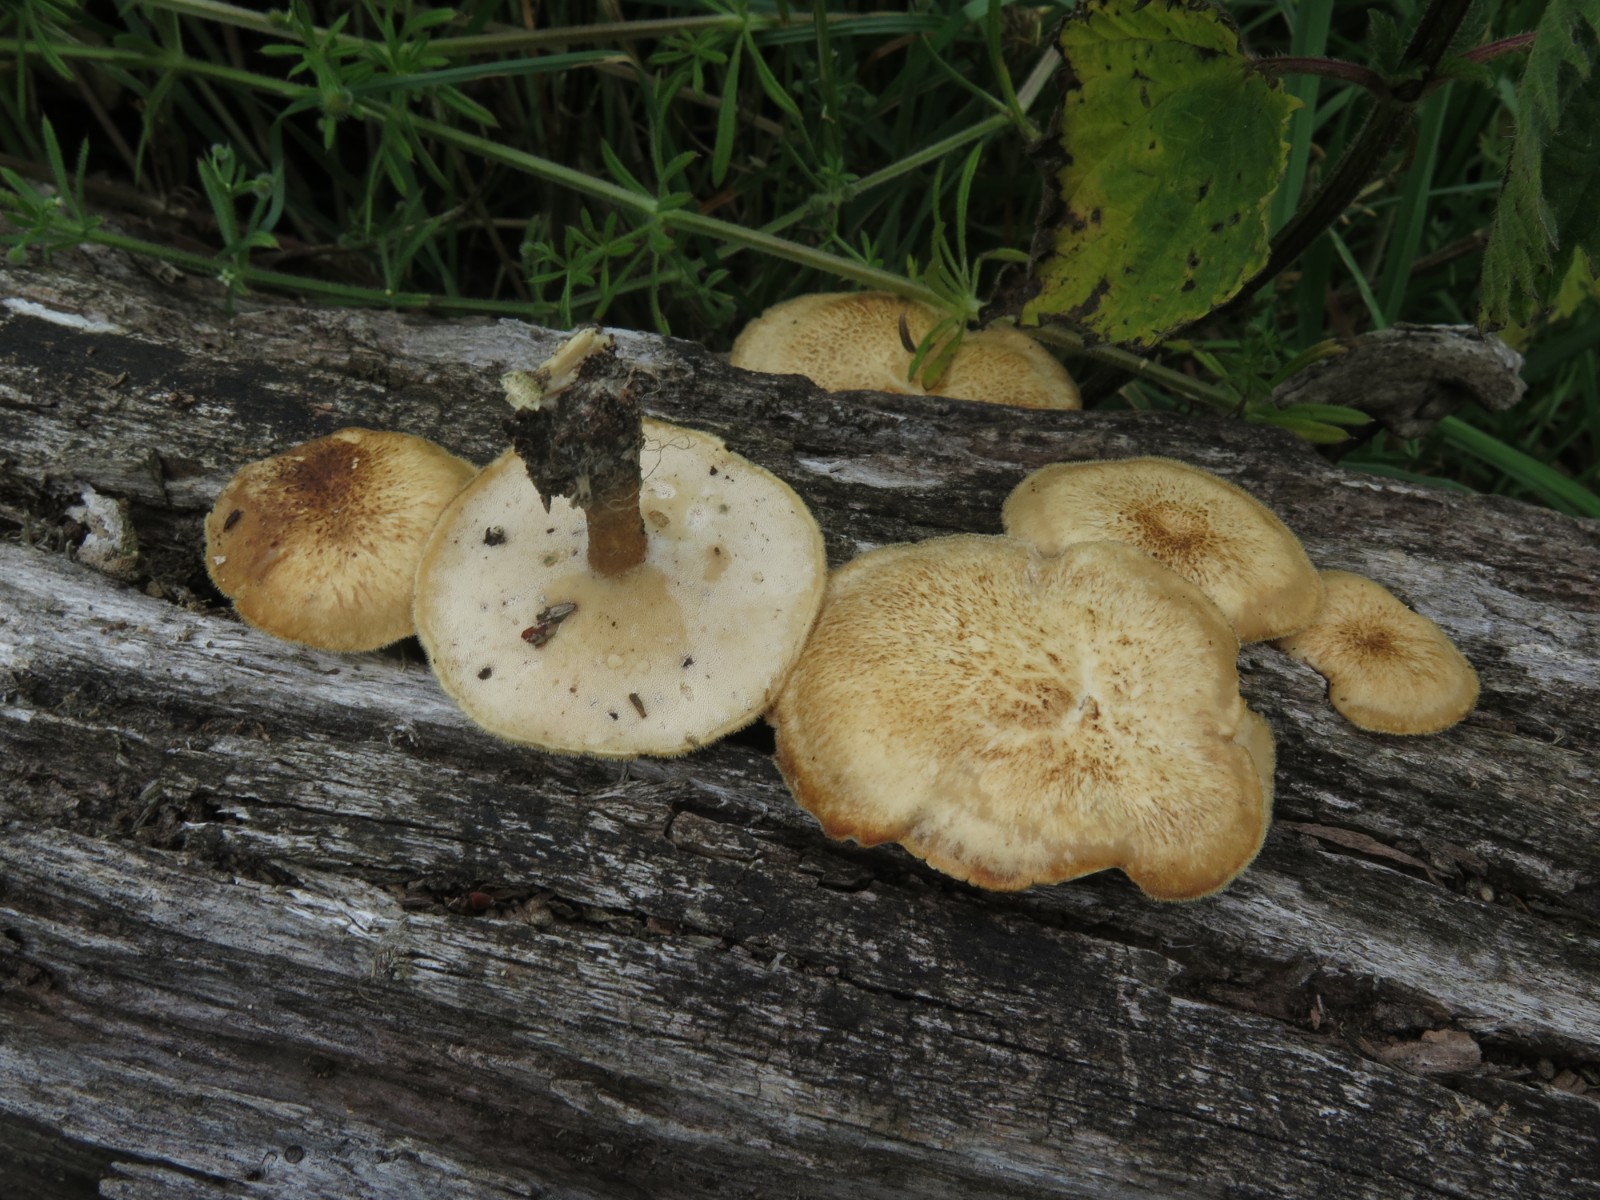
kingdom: Fungi
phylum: Basidiomycota
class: Agaricomycetes
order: Polyporales
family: Polyporaceae
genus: Lentinus
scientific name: Lentinus substrictus
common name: forårs-stilkporesvamp
